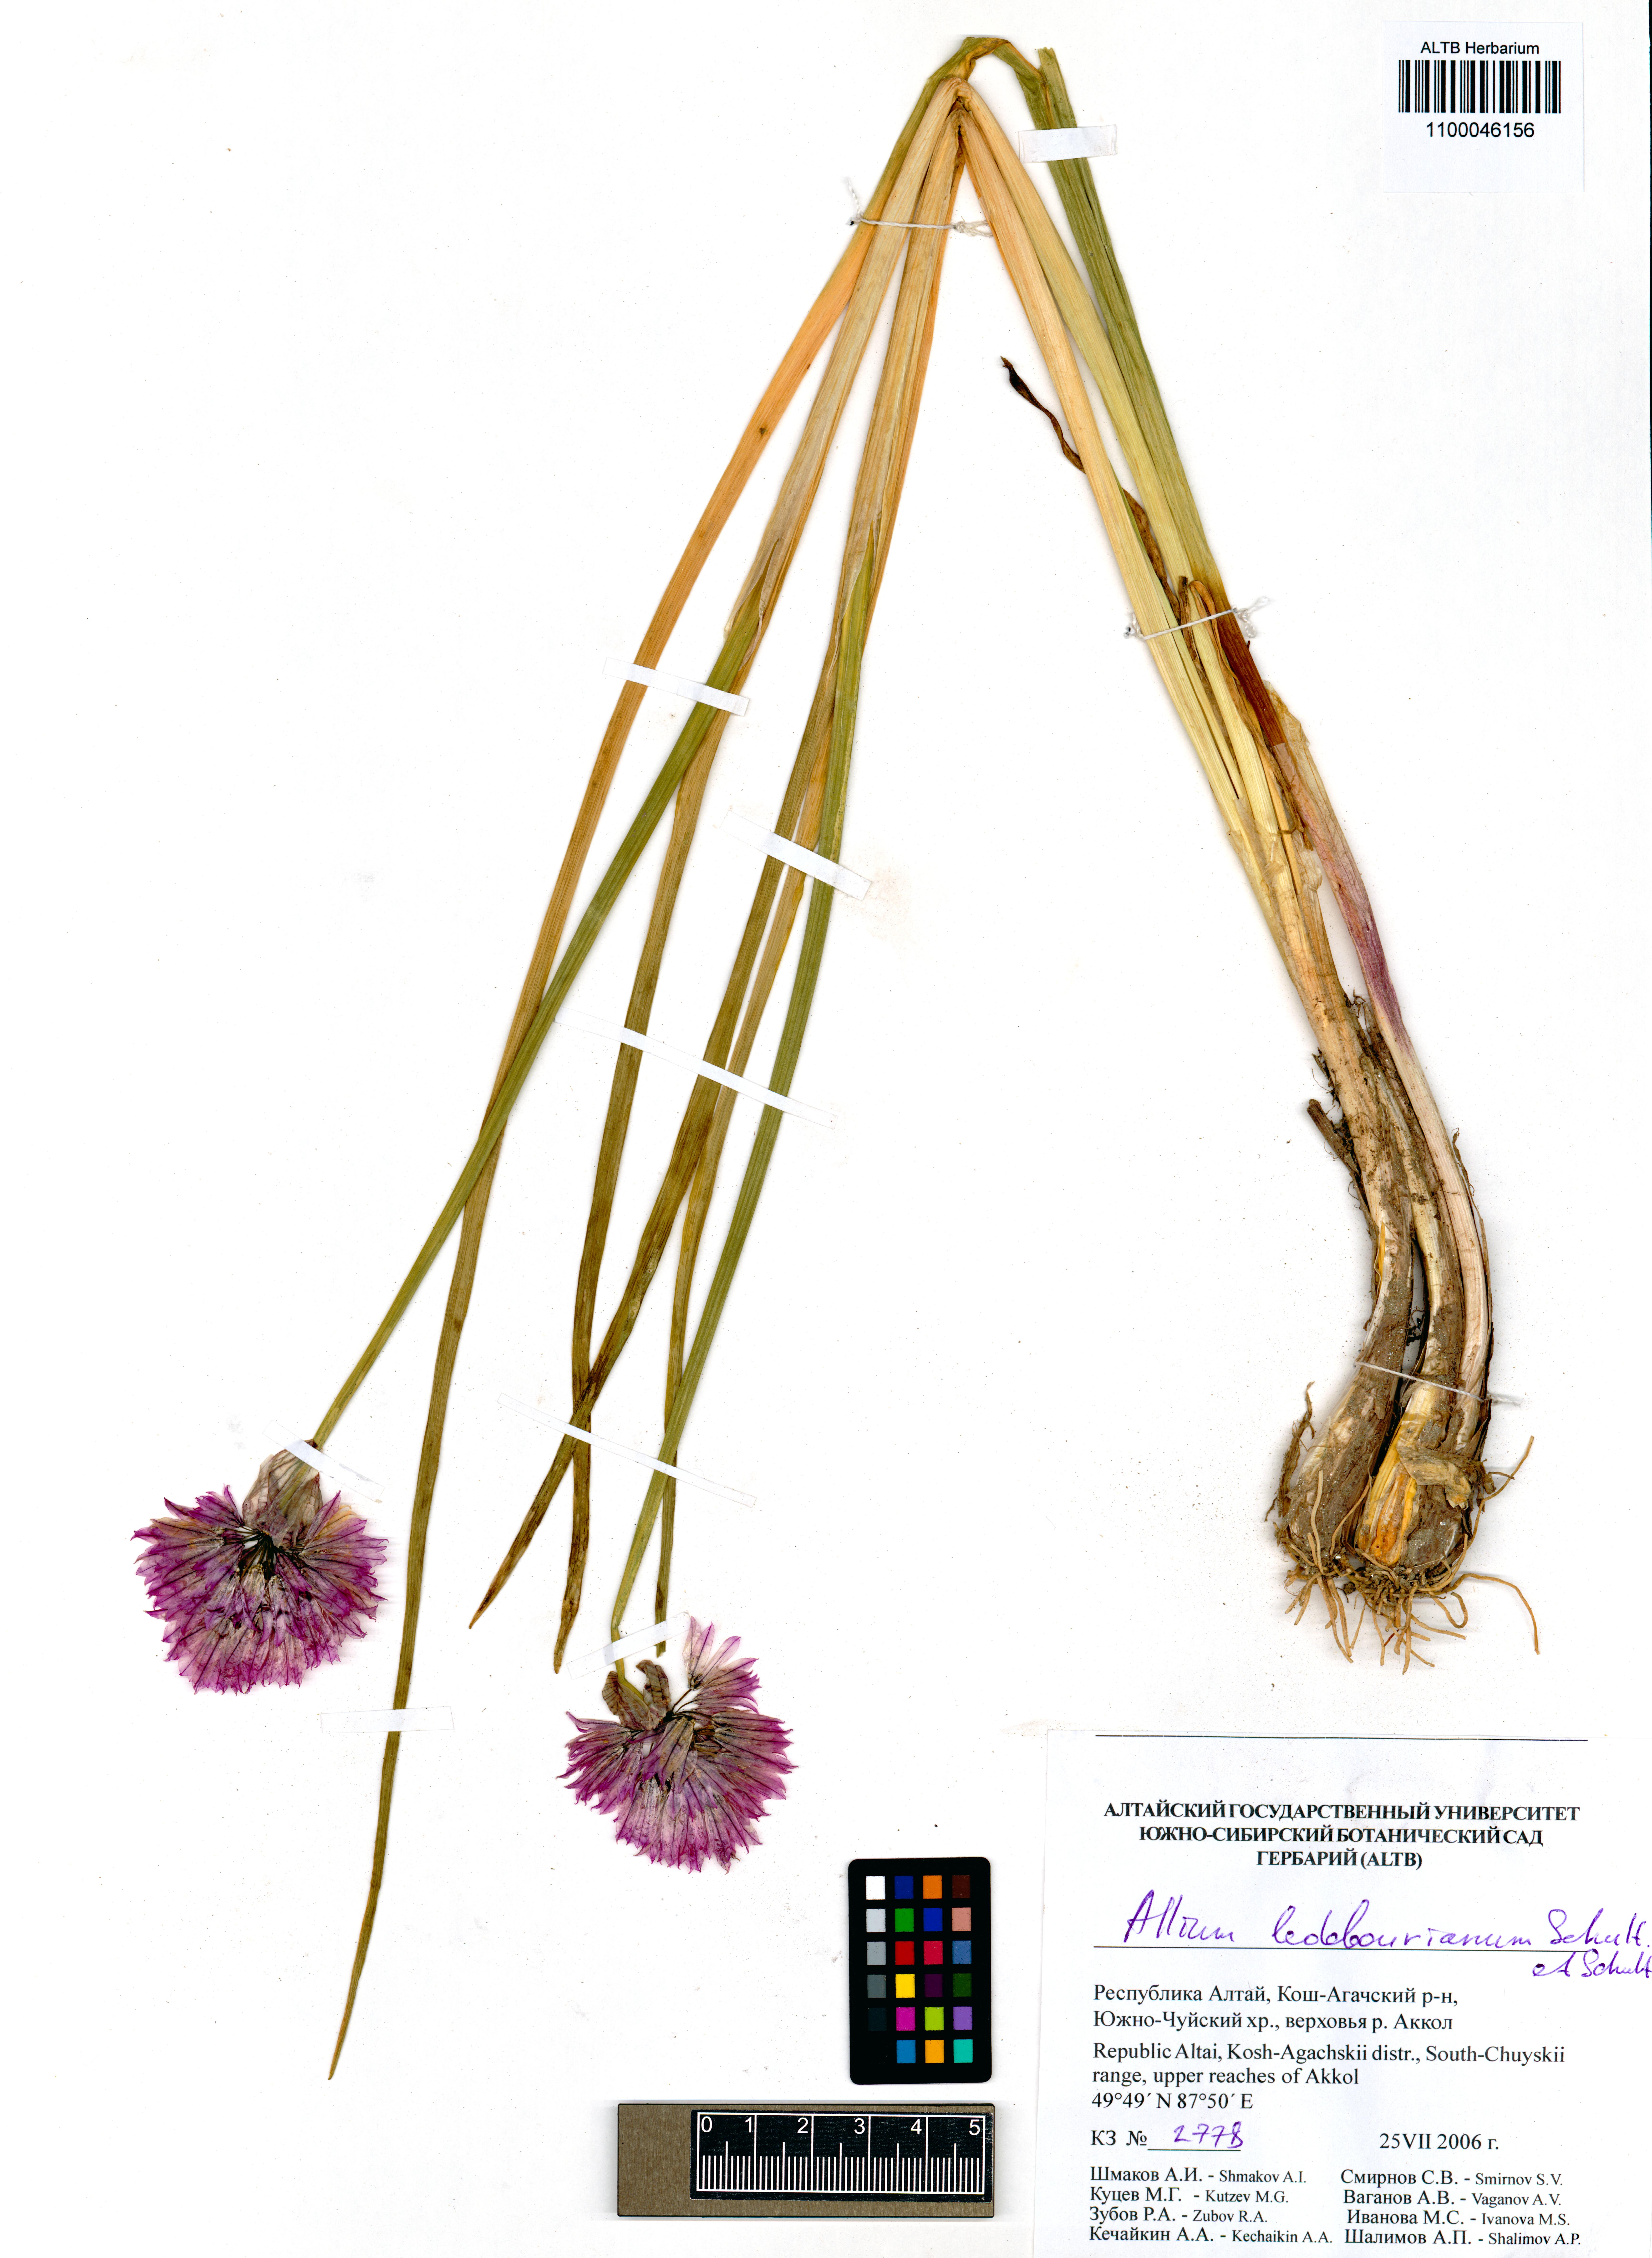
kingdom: Plantae
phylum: Tracheophyta
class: Liliopsida
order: Asparagales
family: Amaryllidaceae
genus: Allium
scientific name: Allium ledebourianum
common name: Ledebour chive
